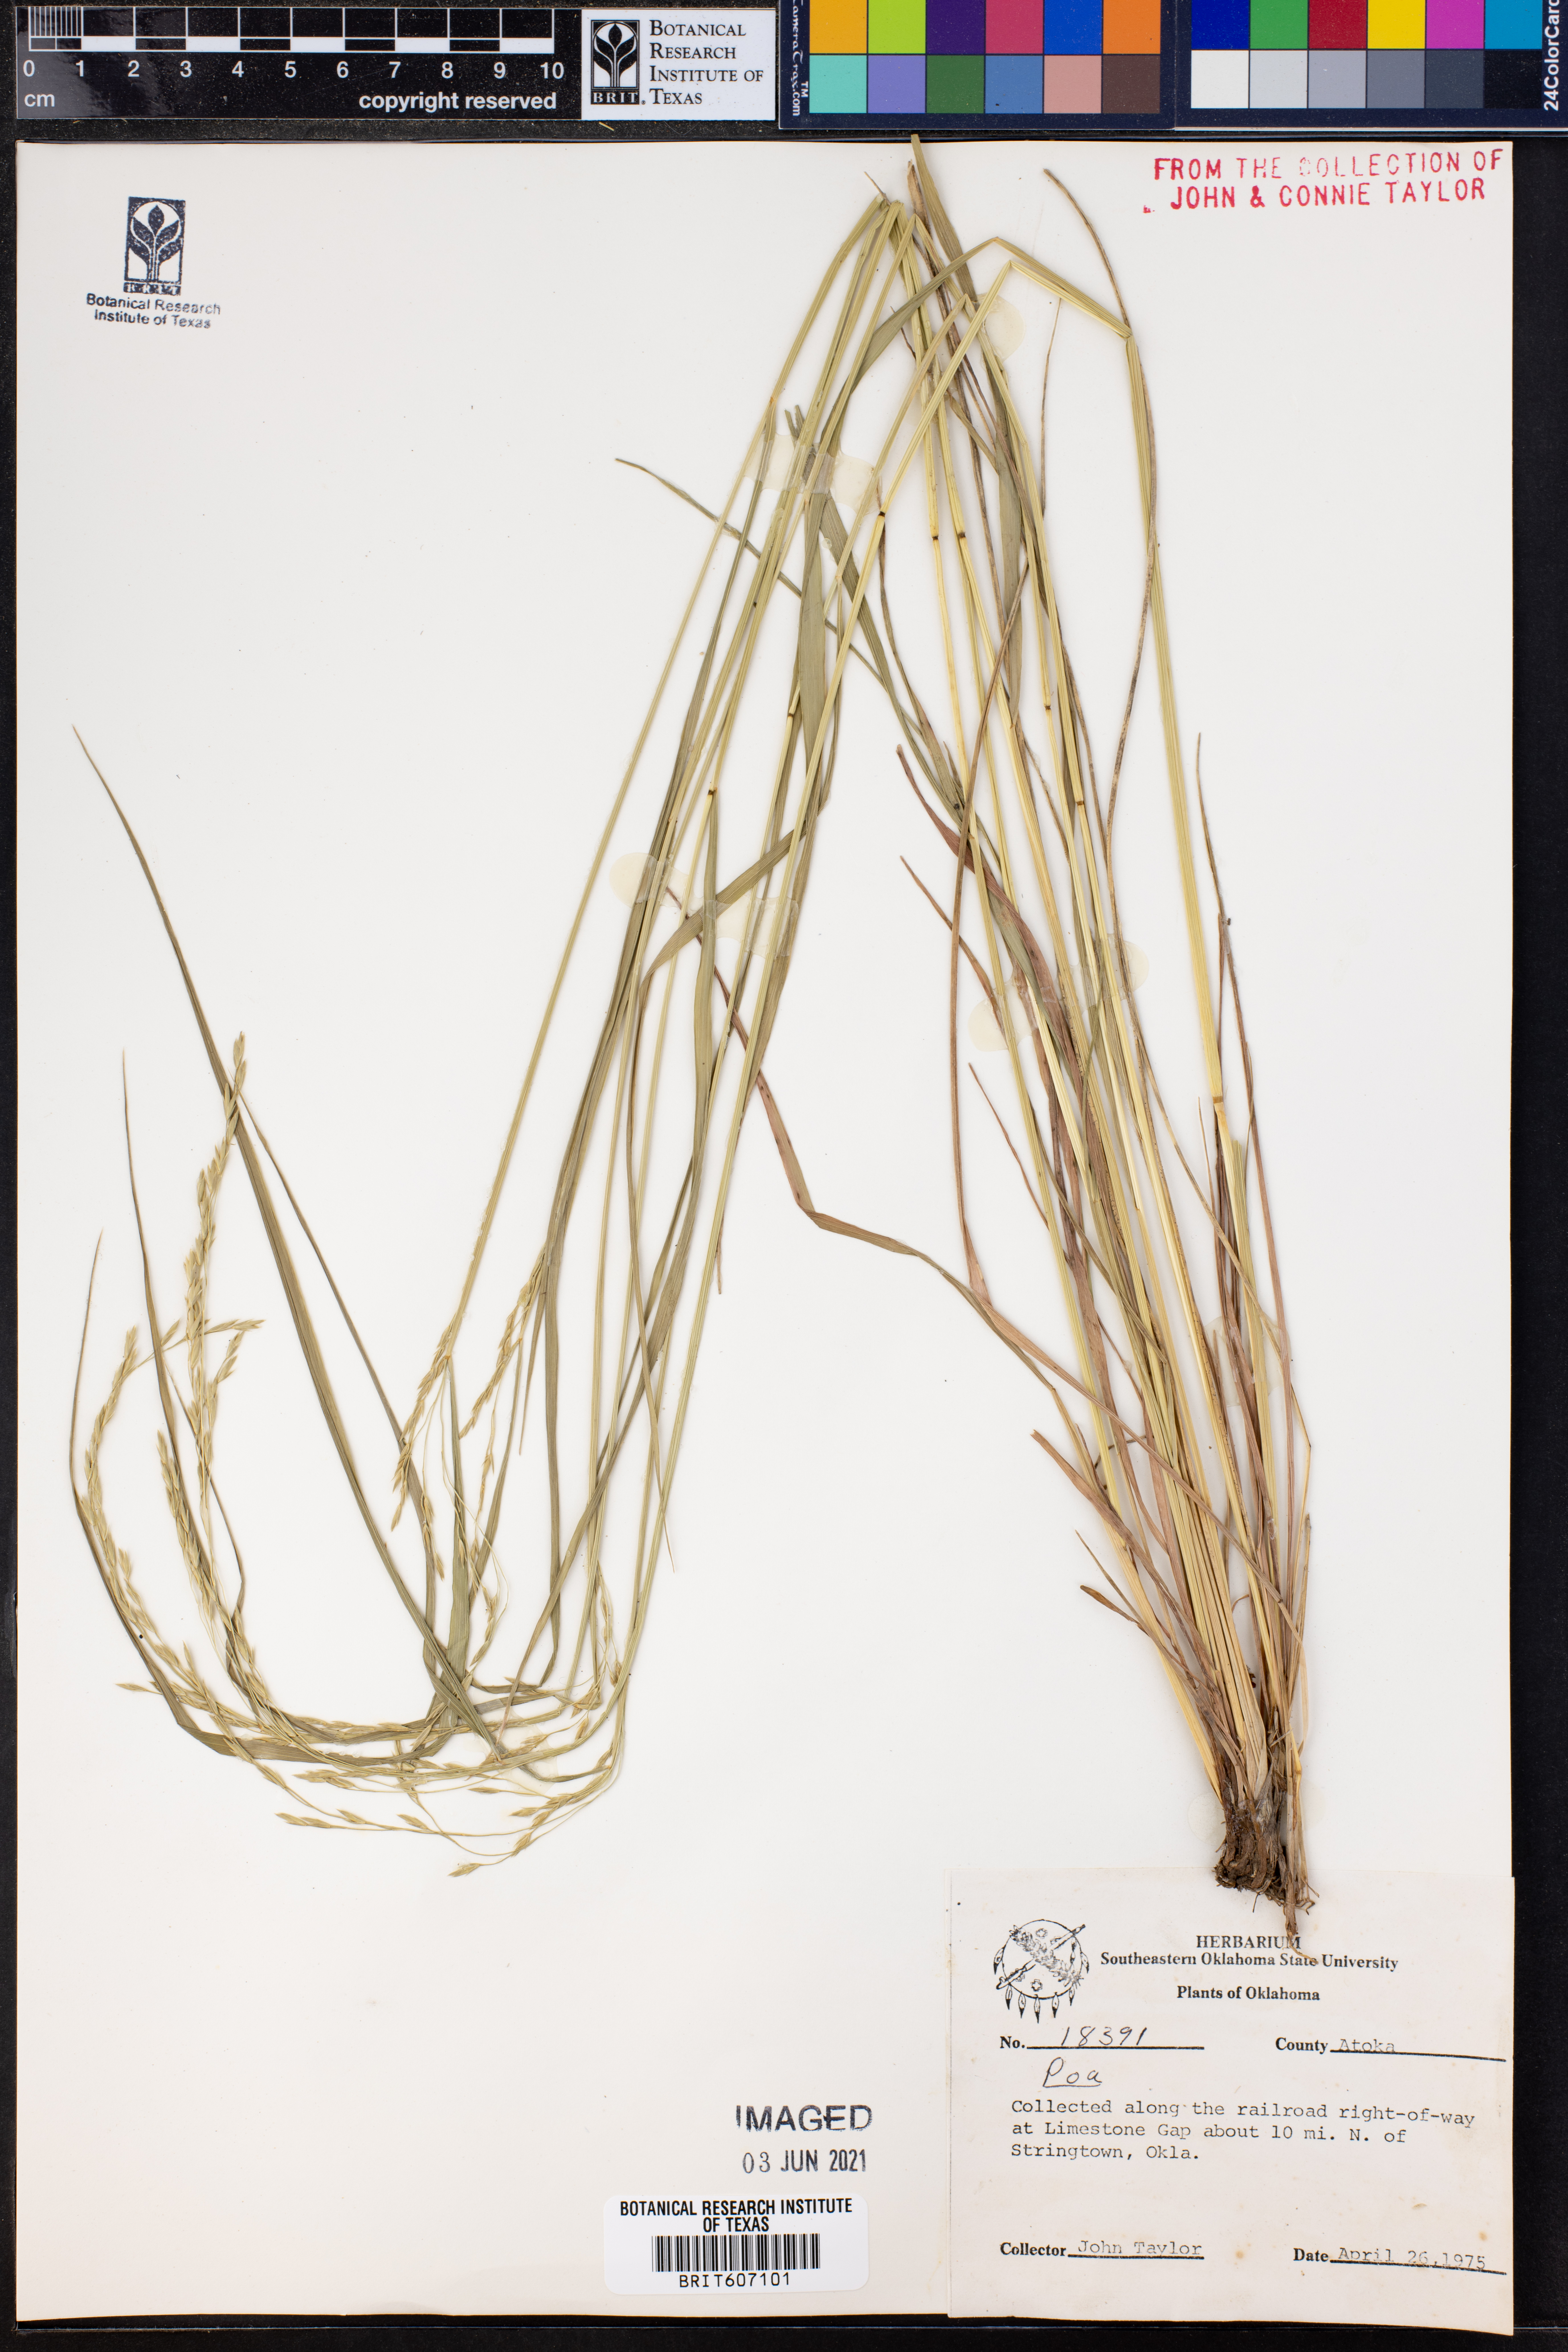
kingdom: Plantae
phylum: Tracheophyta
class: Liliopsida
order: Poales
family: Poaceae
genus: Poa
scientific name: Poa
